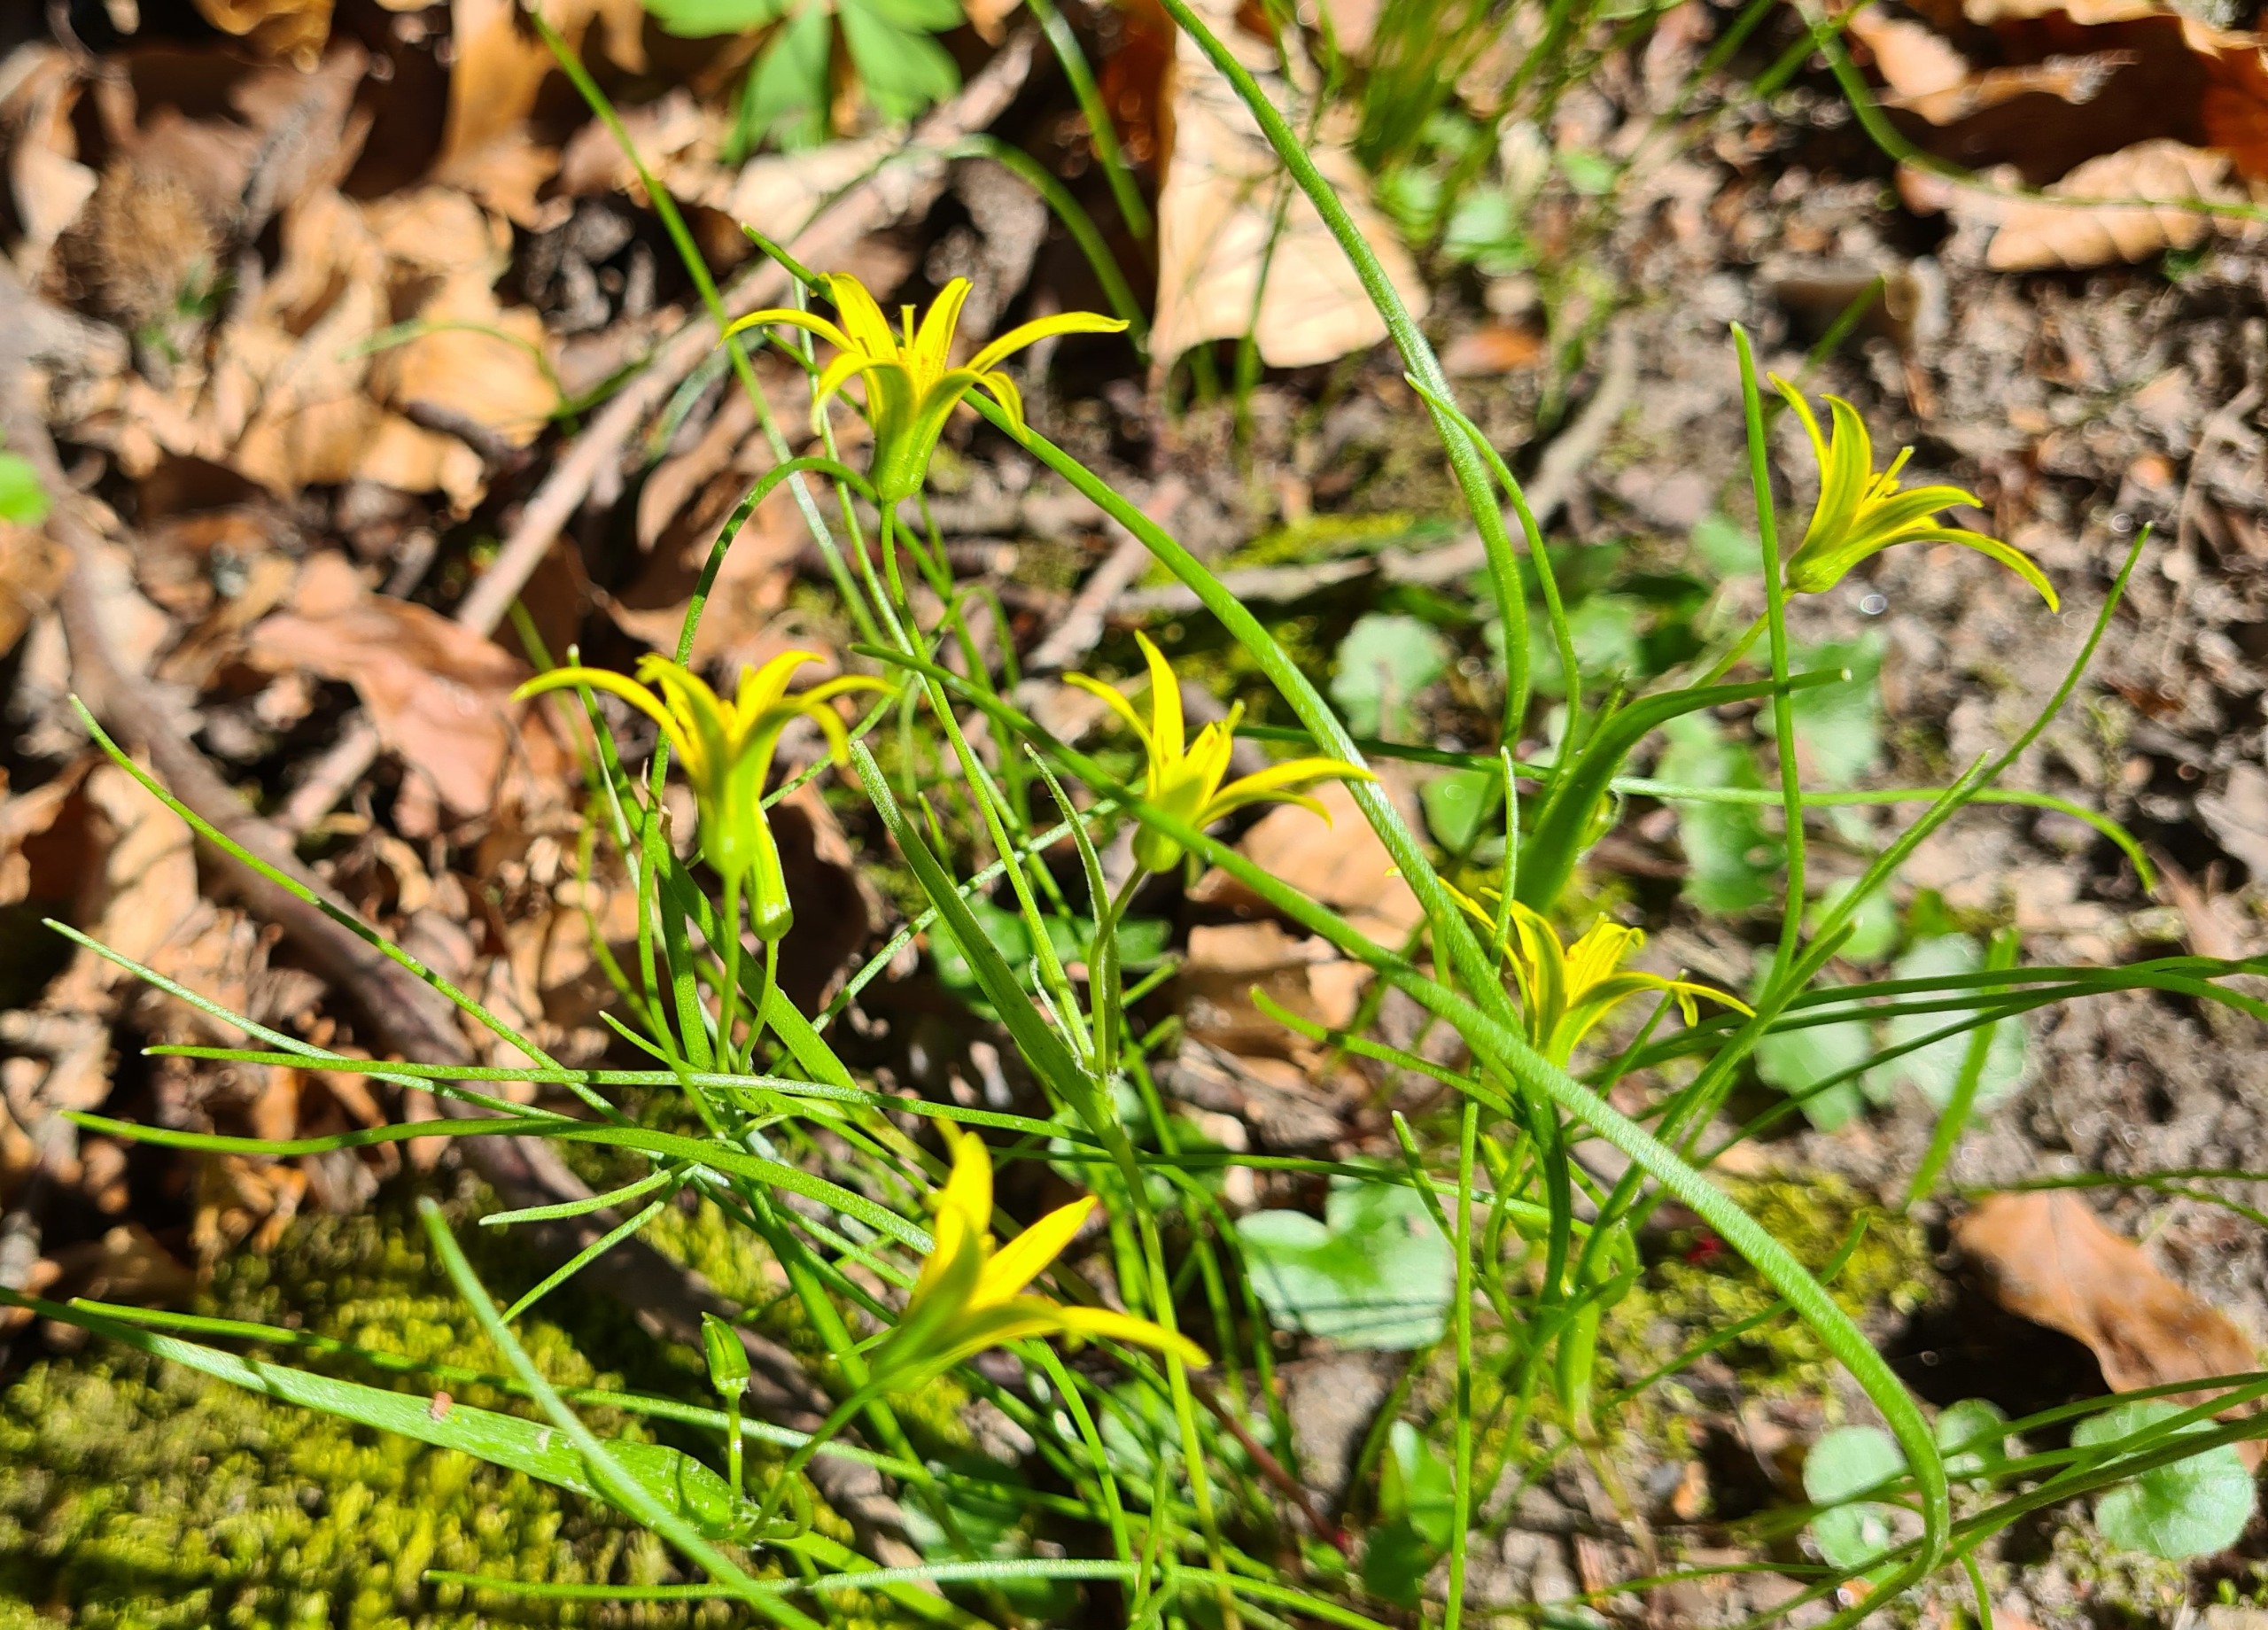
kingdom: Plantae
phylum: Tracheophyta
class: Liliopsida
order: Liliales
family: Liliaceae
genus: Gagea
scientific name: Gagea minima
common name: Liden guldstjerne
